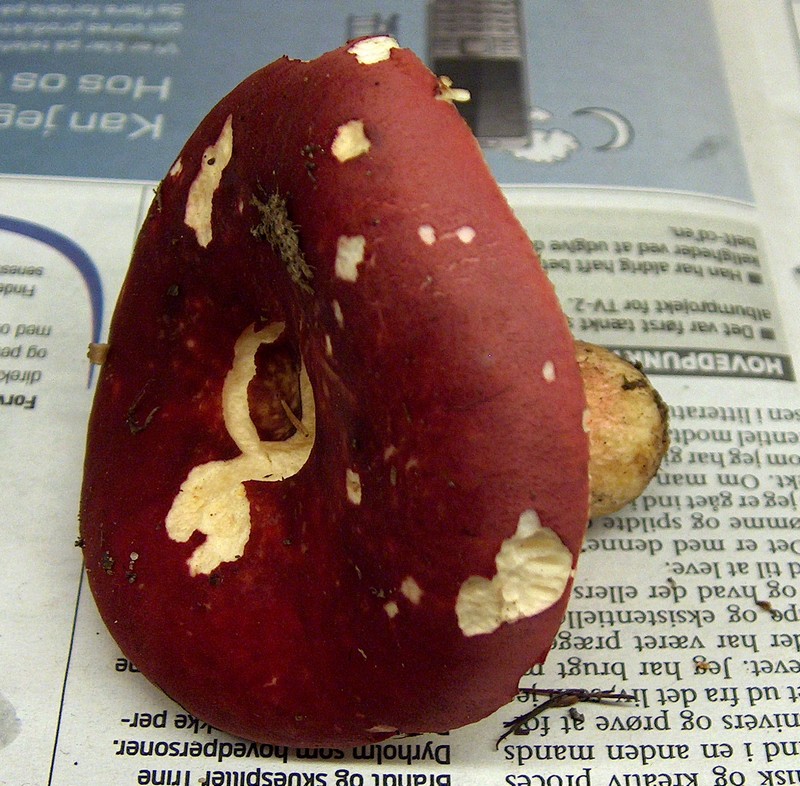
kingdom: Fungi
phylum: Basidiomycota
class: Agaricomycetes
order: Russulales
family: Russulaceae
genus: Russula
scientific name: Russula xerampelina
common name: hummer-skørhat
